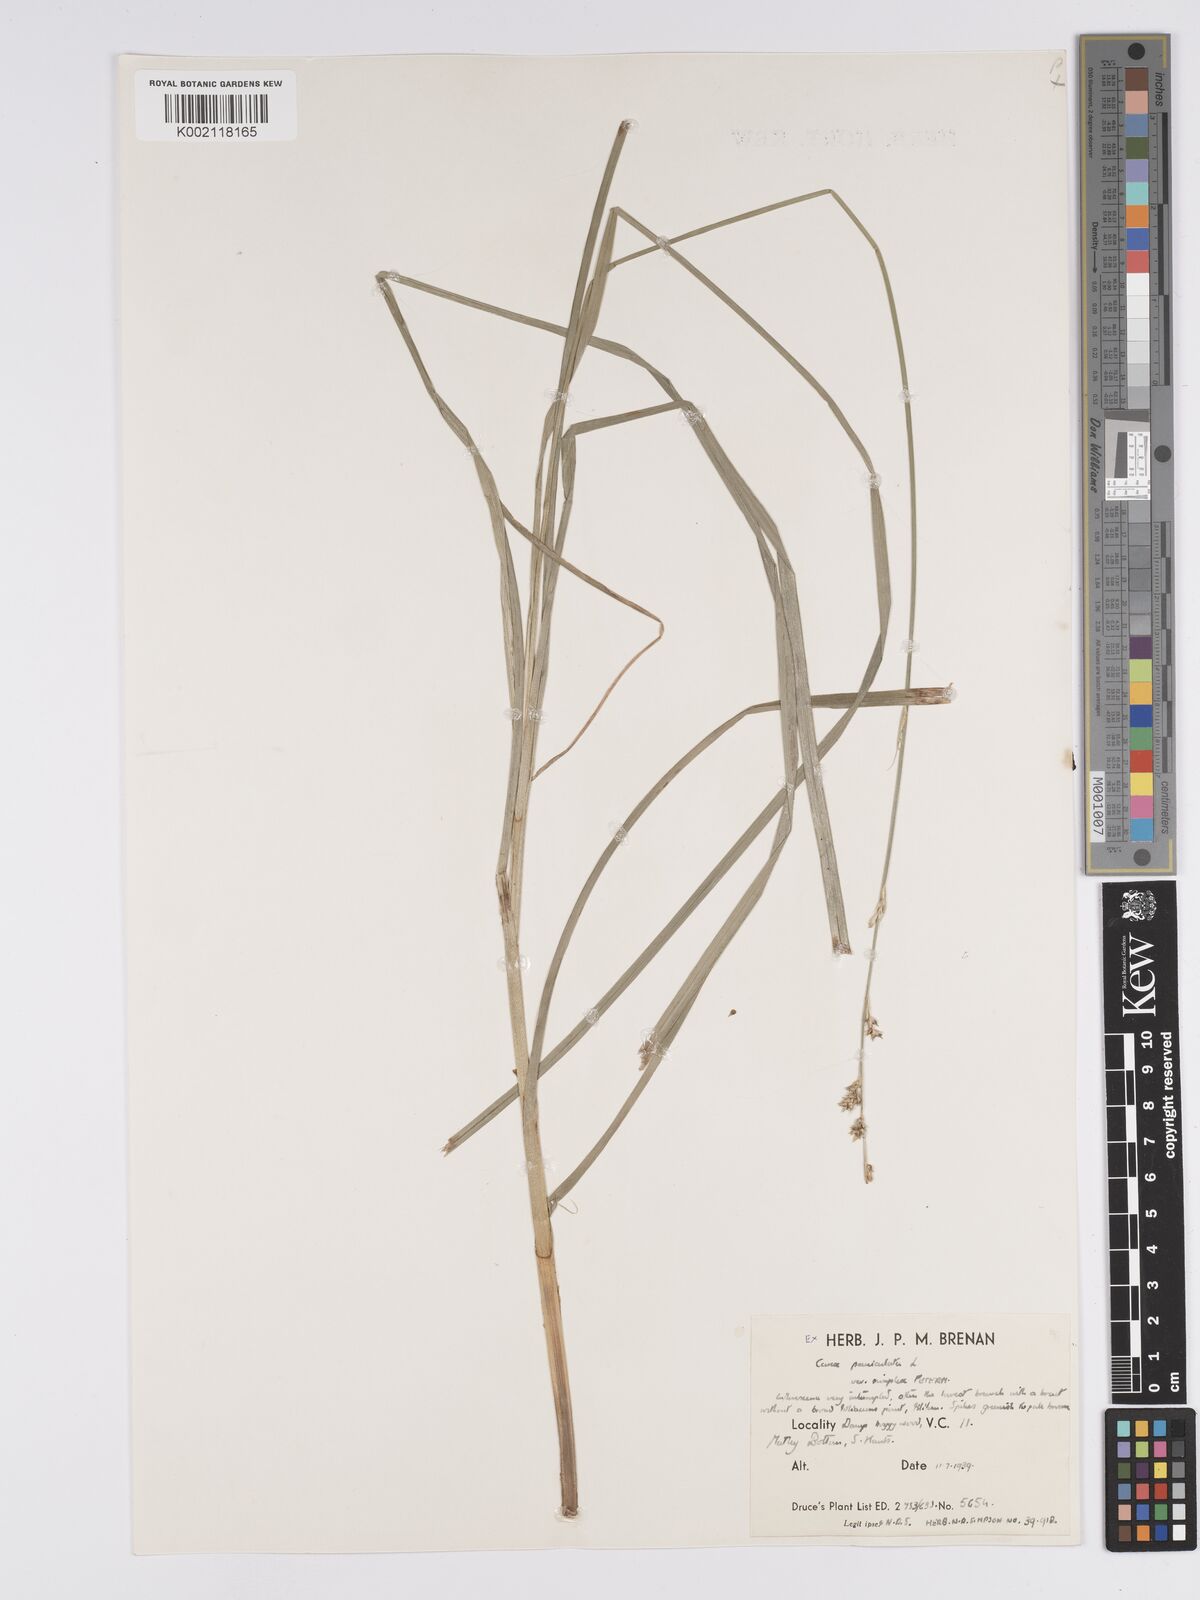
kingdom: Plantae
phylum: Tracheophyta
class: Liliopsida
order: Poales
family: Cyperaceae
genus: Carex
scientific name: Carex paniculata
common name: Greater tussock-sedge
